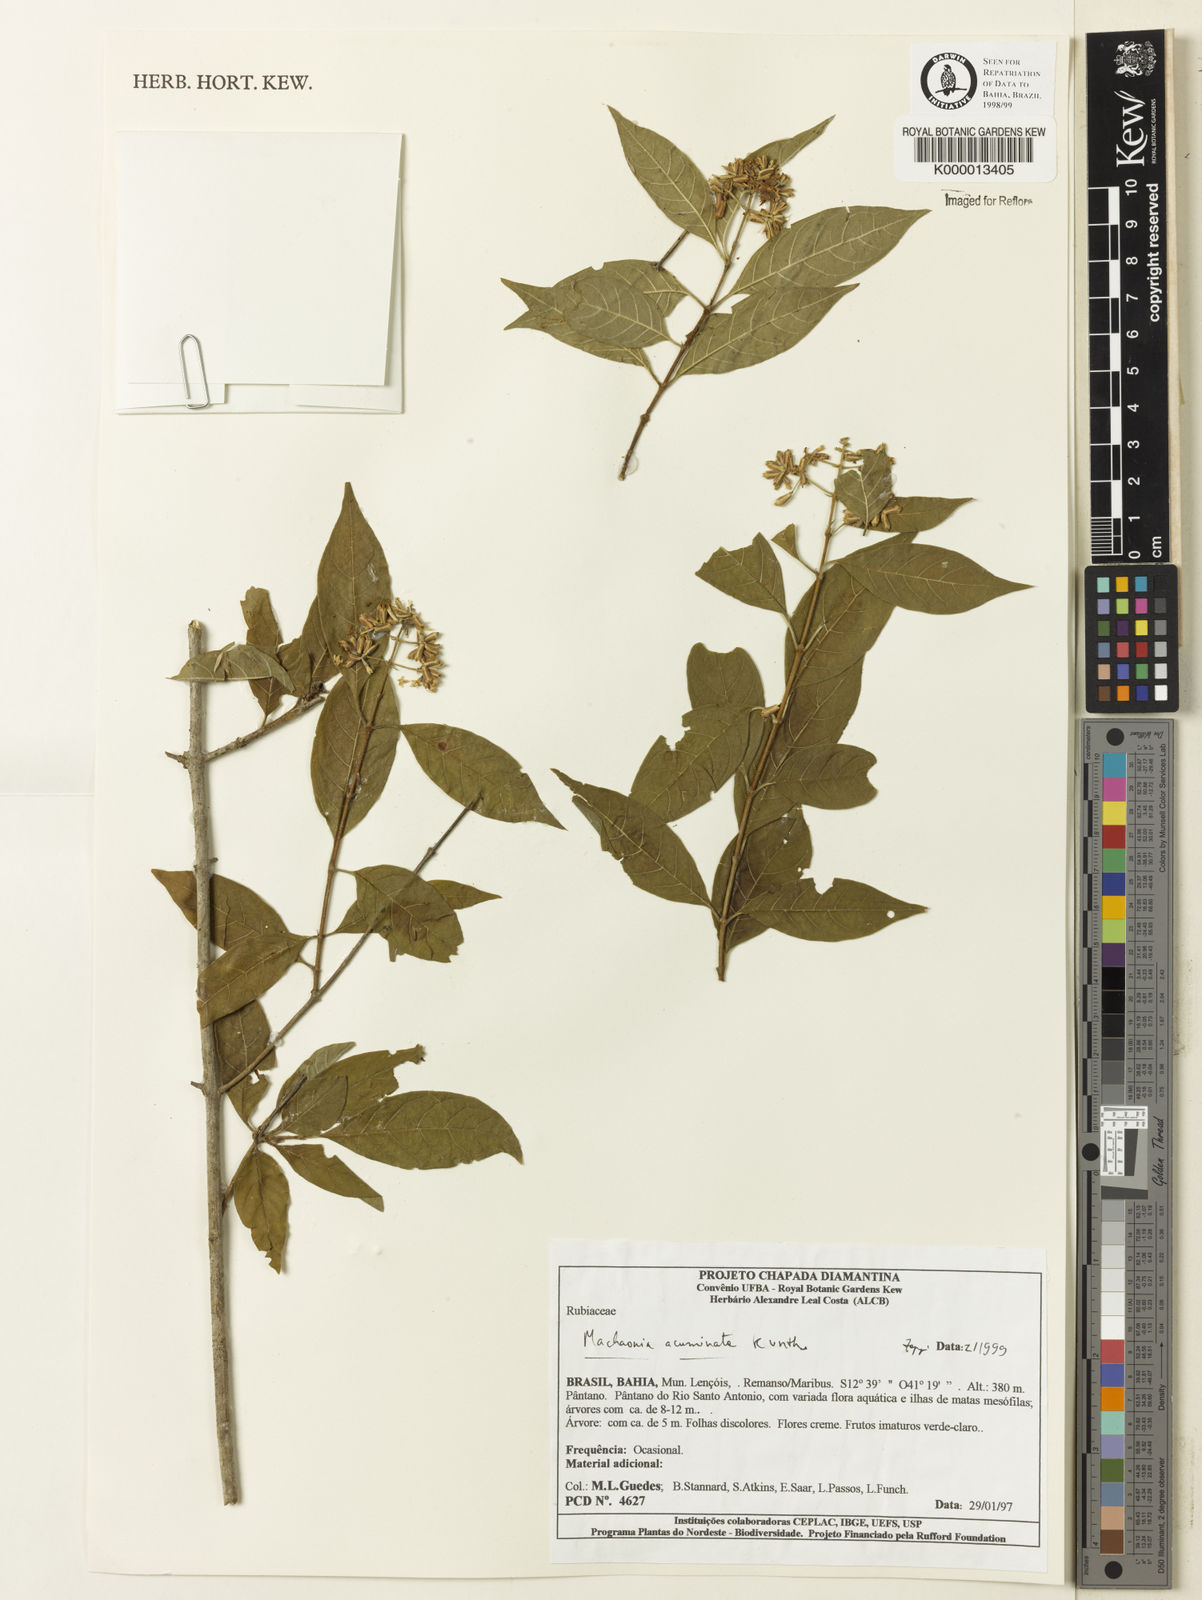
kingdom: Plantae
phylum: Tracheophyta
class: Magnoliopsida
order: Gentianales
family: Rubiaceae
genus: Machaonia
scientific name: Machaonia
